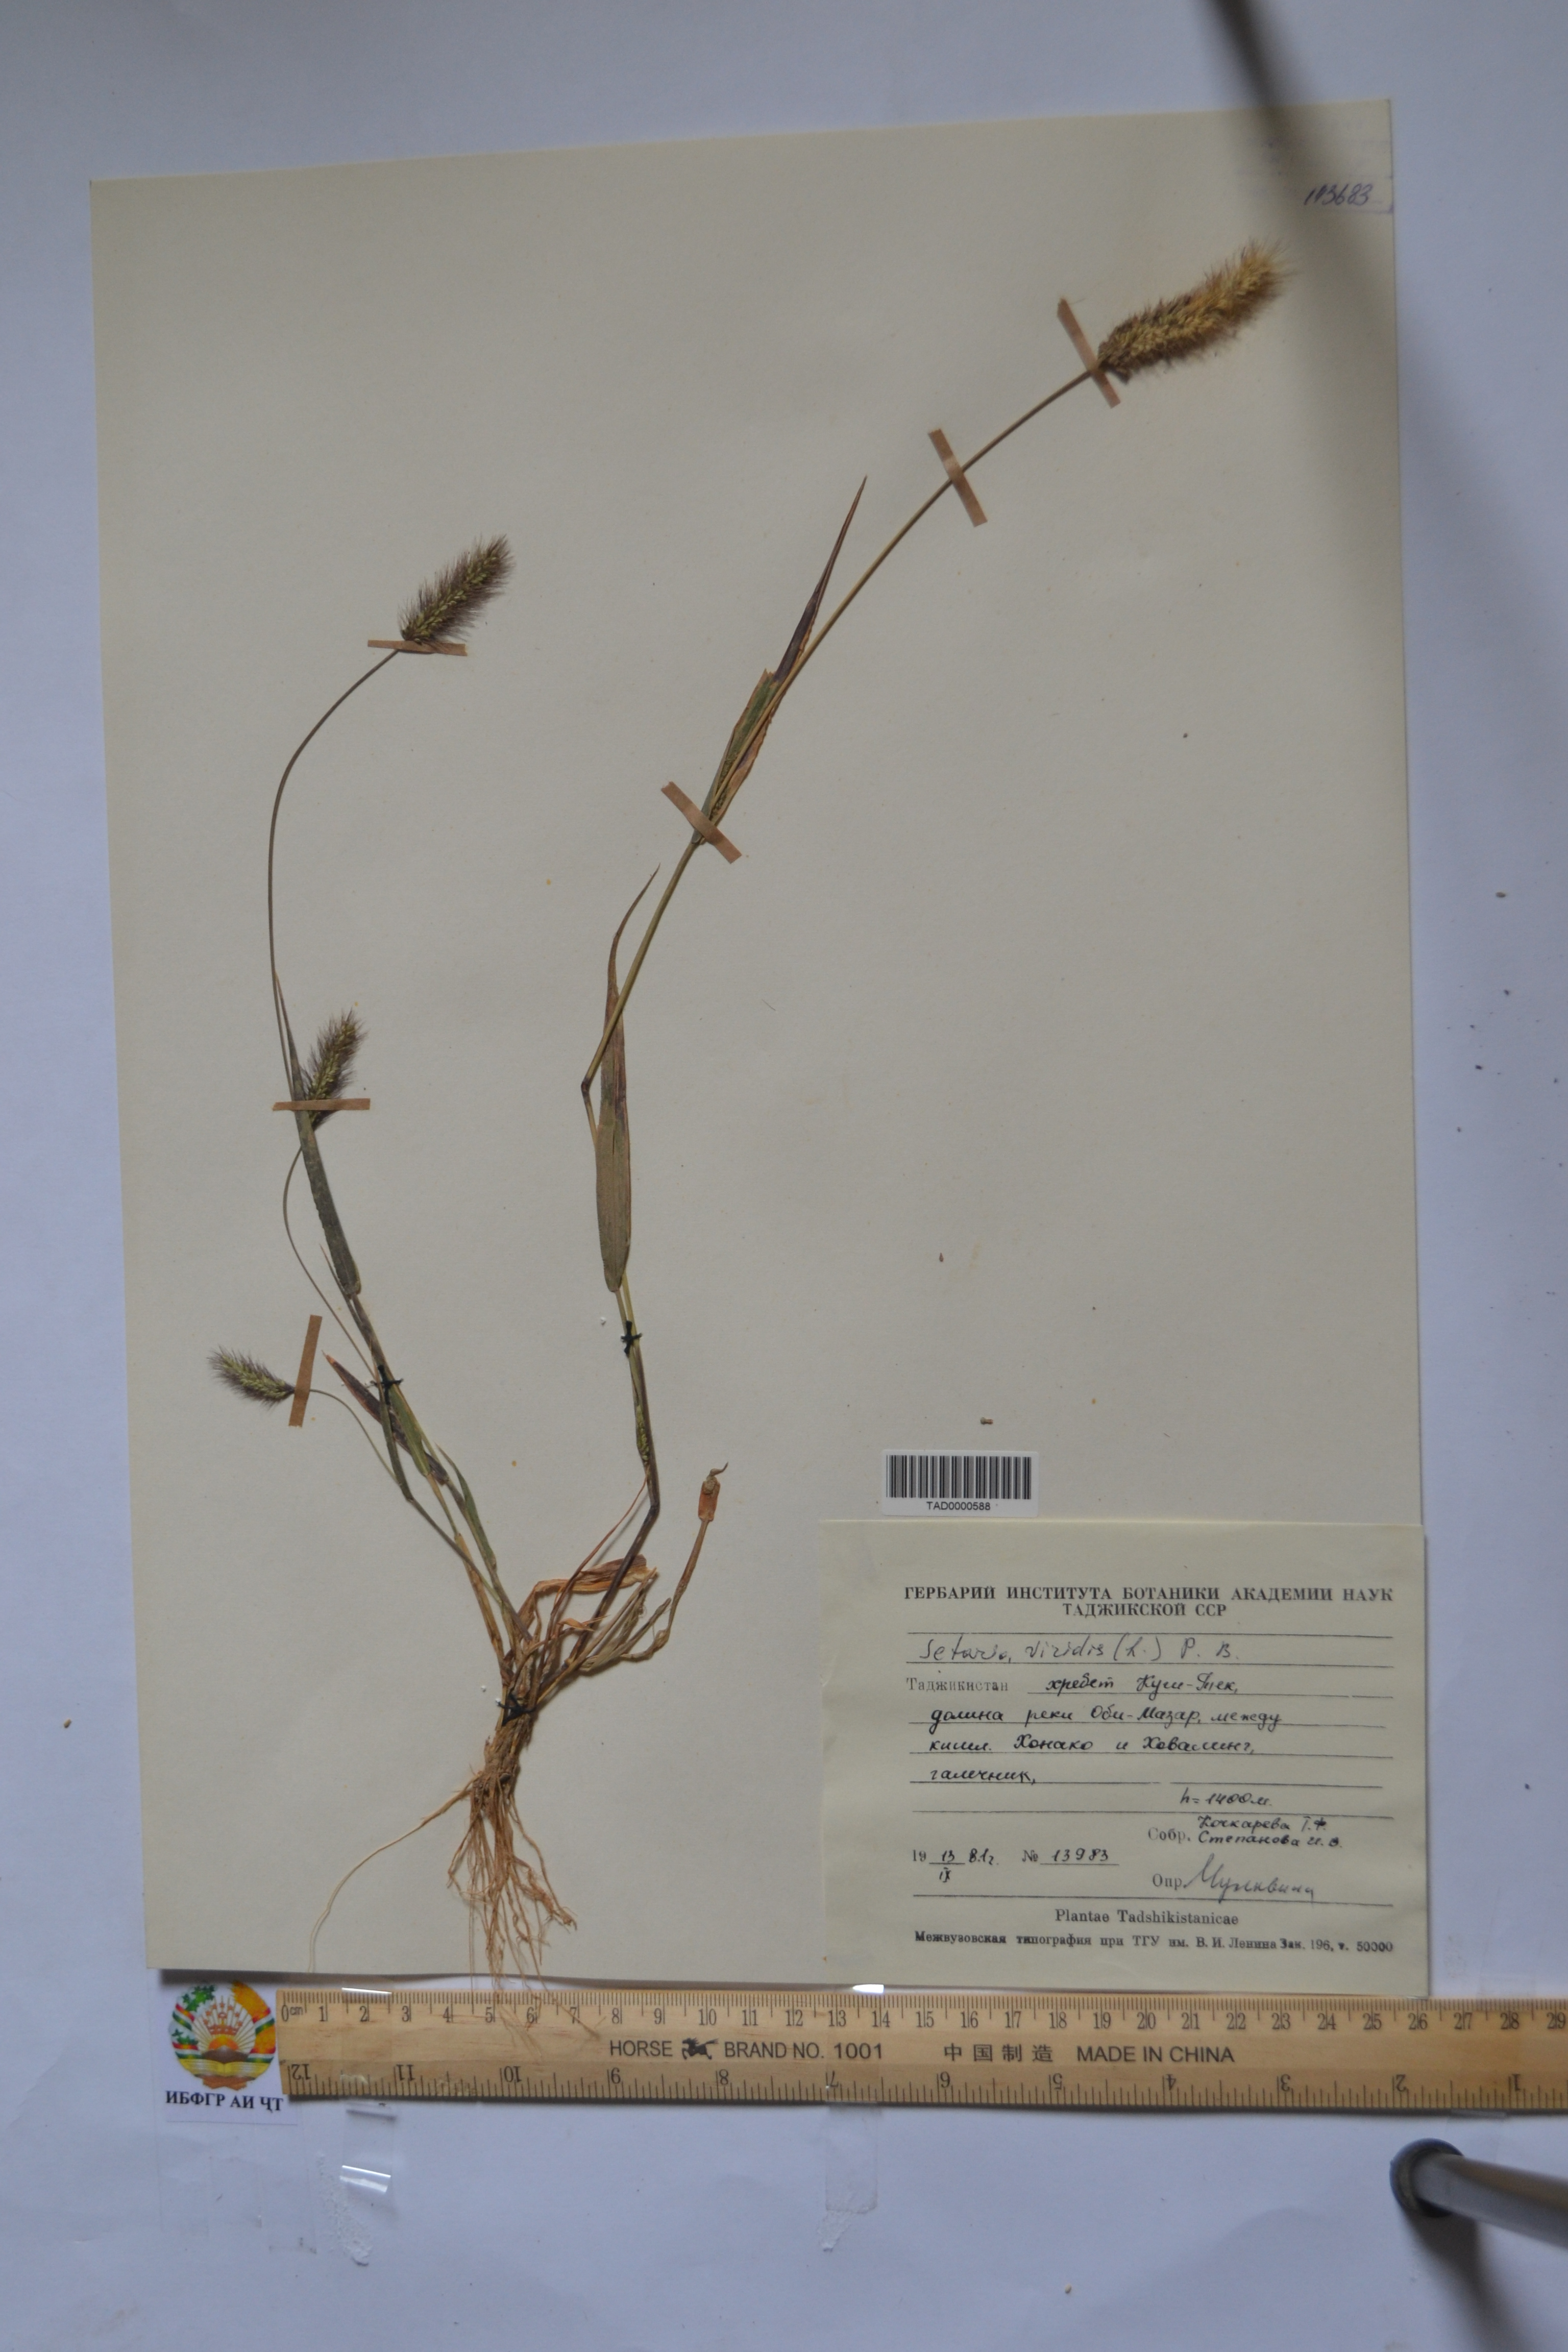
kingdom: Plantae
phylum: Tracheophyta
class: Liliopsida
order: Poales
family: Poaceae
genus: Setaria
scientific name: Setaria viridis
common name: Green bristlegrass
